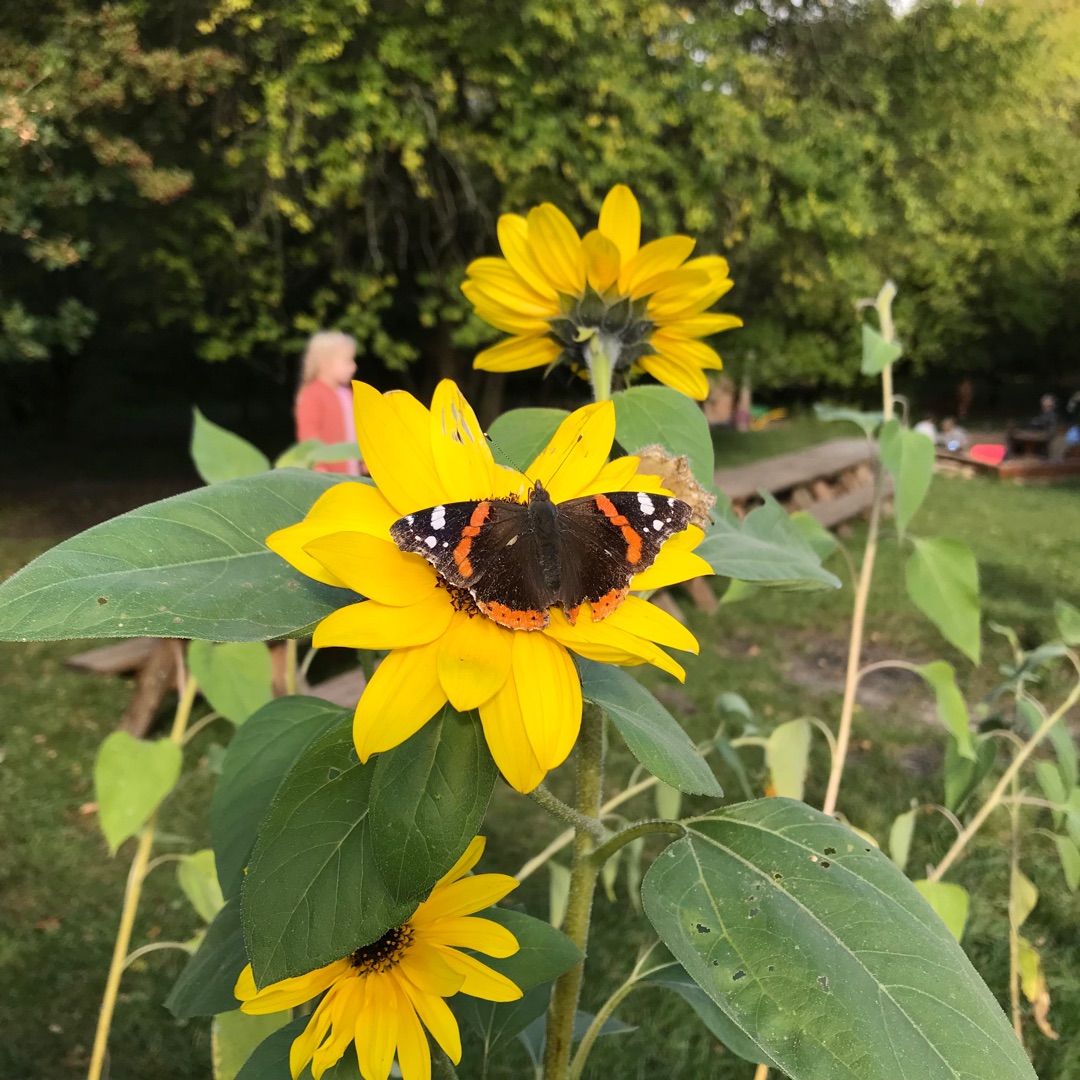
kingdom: Animalia
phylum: Arthropoda
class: Insecta
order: Lepidoptera
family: Nymphalidae
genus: Vanessa
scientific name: Vanessa atalanta
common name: Admiral
